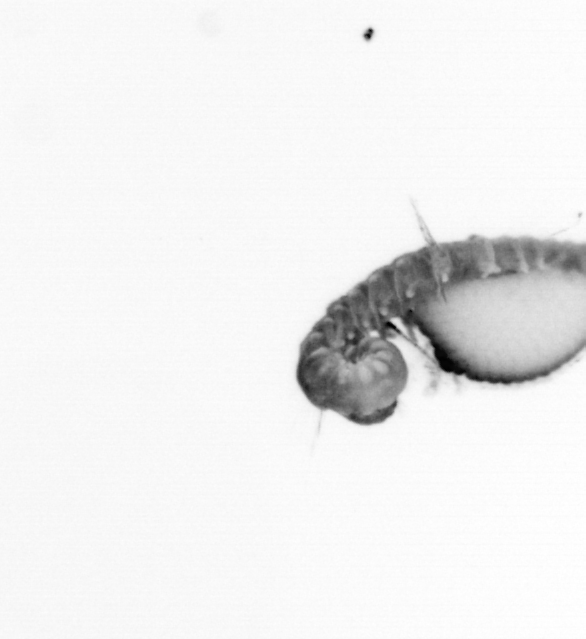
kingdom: Animalia
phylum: Annelida
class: Polychaeta
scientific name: Polychaeta
